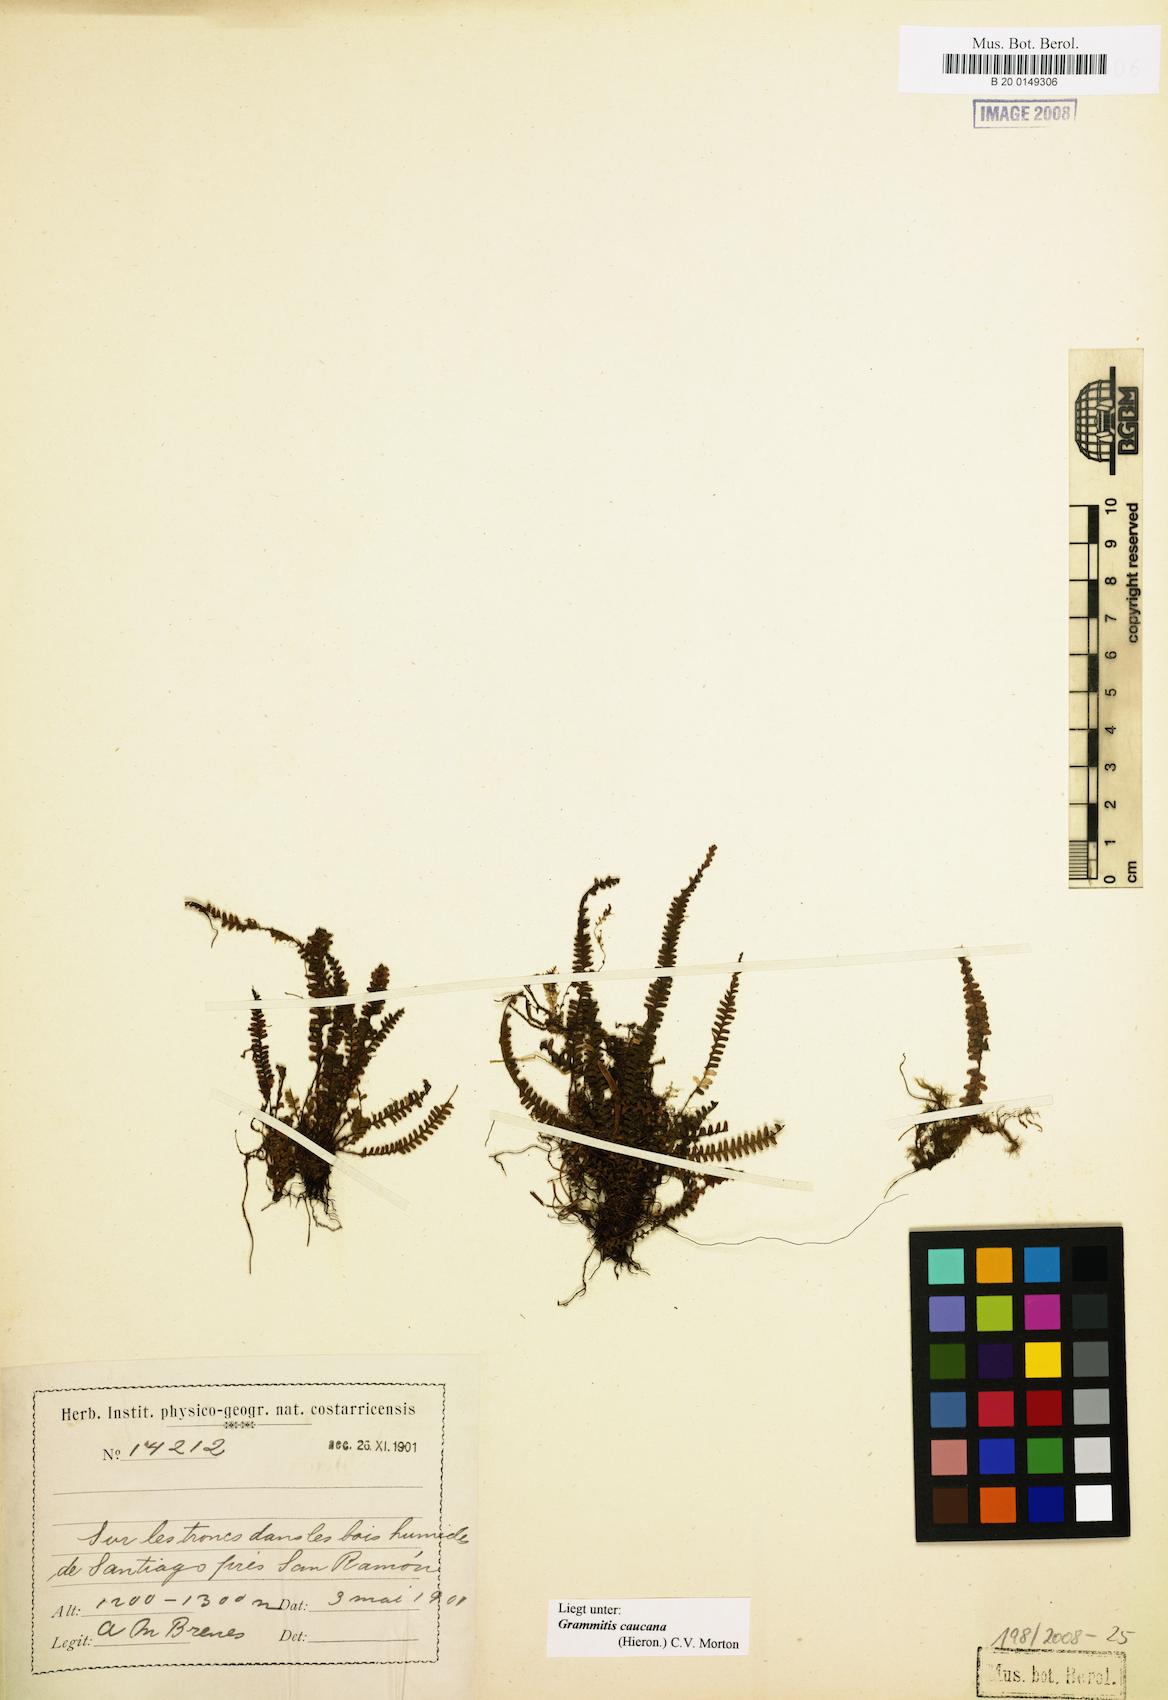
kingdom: Plantae
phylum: Tracheophyta
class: Polypodiopsida
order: Polypodiales
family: Polypodiaceae
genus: Moranopteris
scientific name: Moranopteris taenifolia
